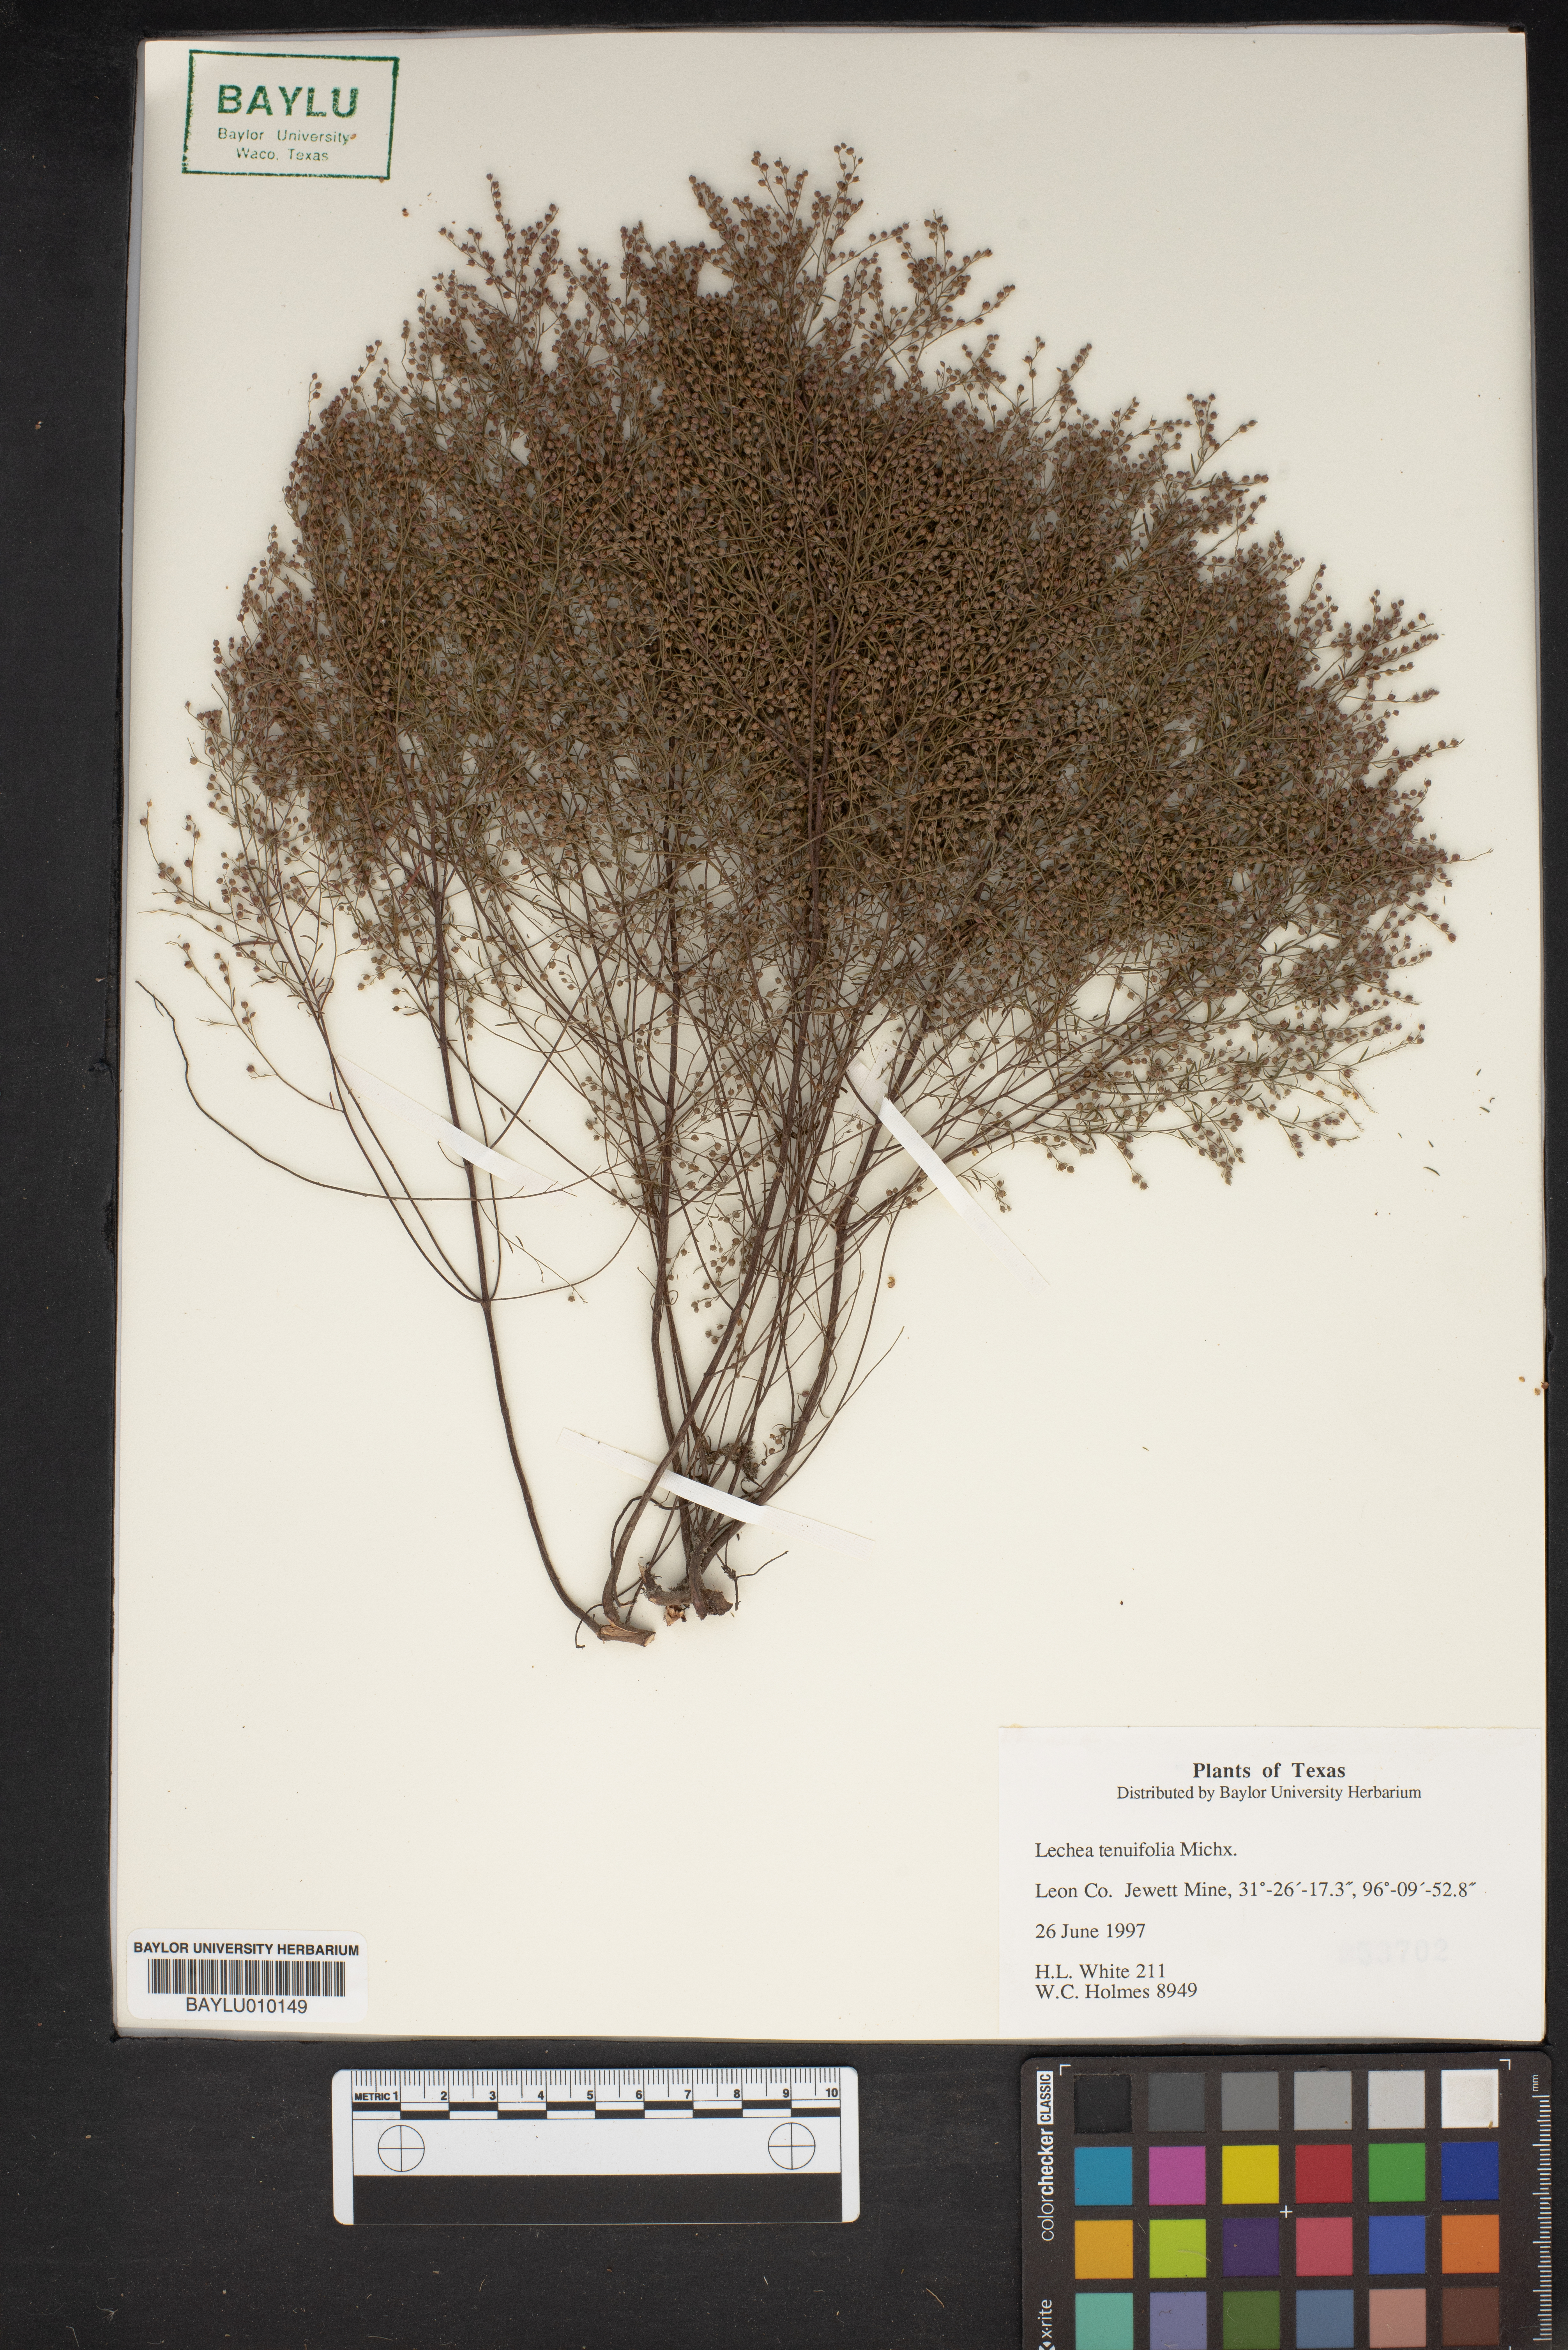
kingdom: Plantae
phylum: Tracheophyta
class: Magnoliopsida
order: Malvales
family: Cistaceae
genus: Lechea
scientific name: Lechea tenuifolia
